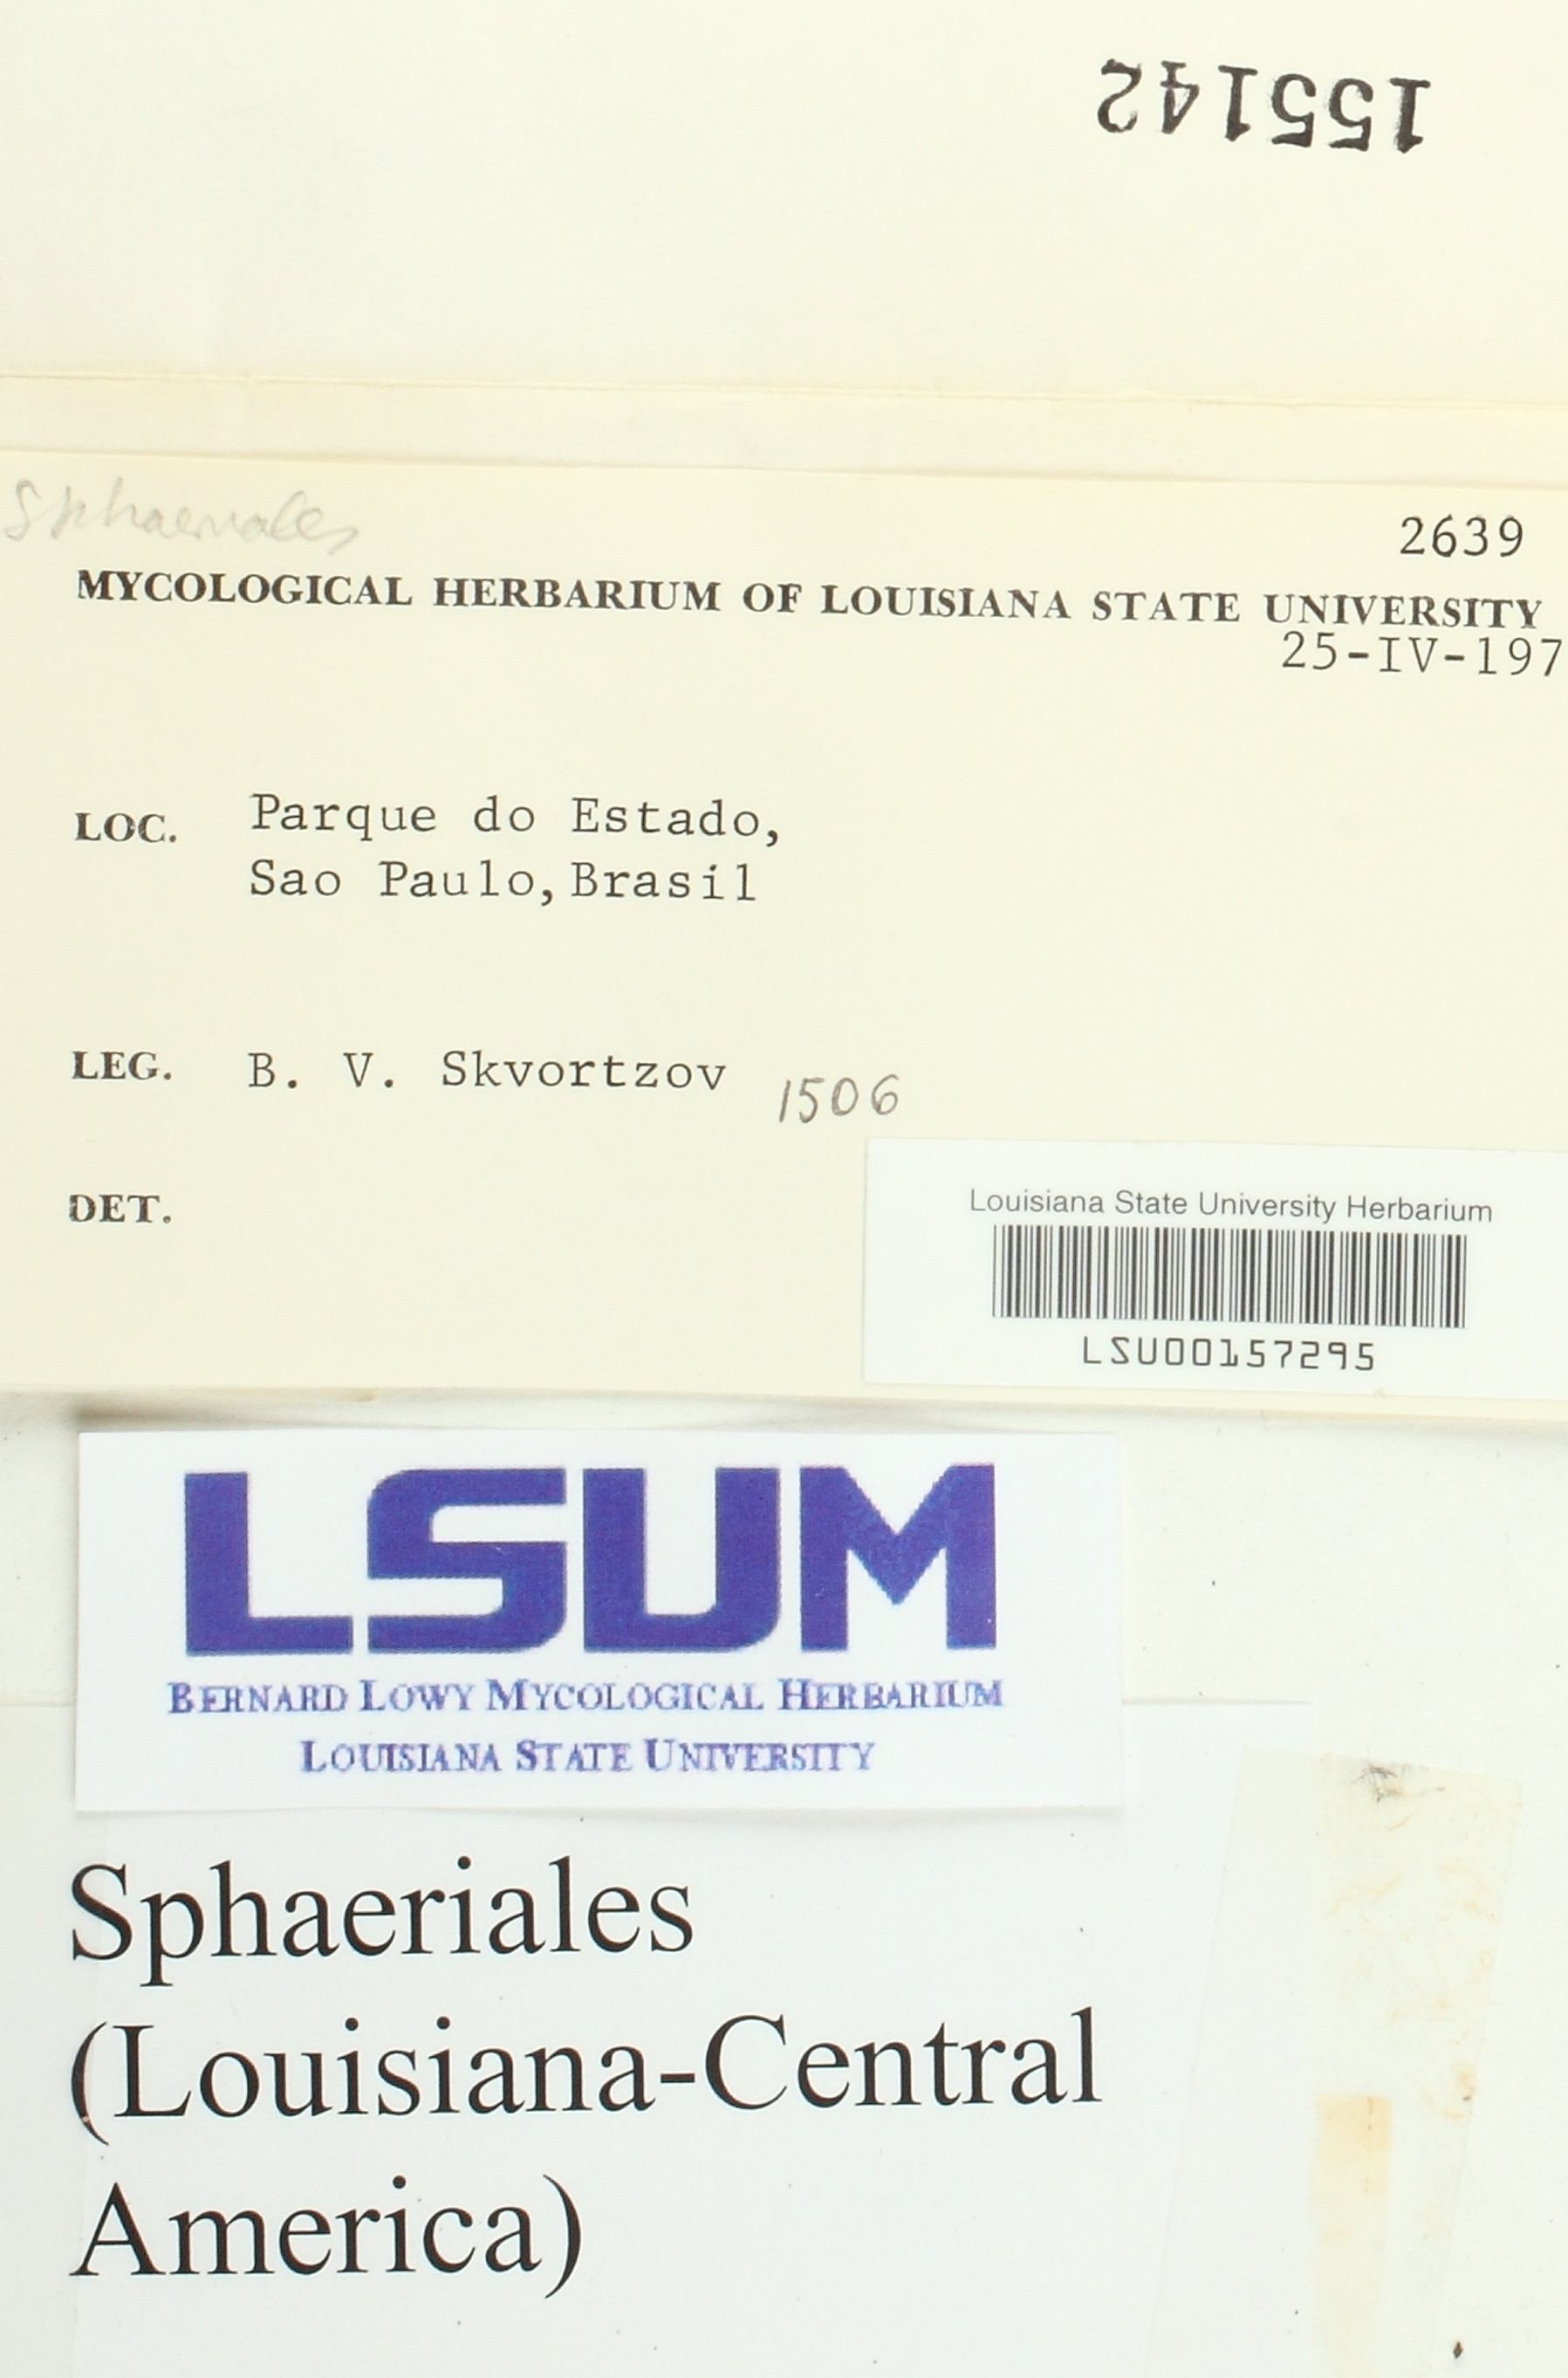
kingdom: Fungi
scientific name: Fungi
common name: Fungi
